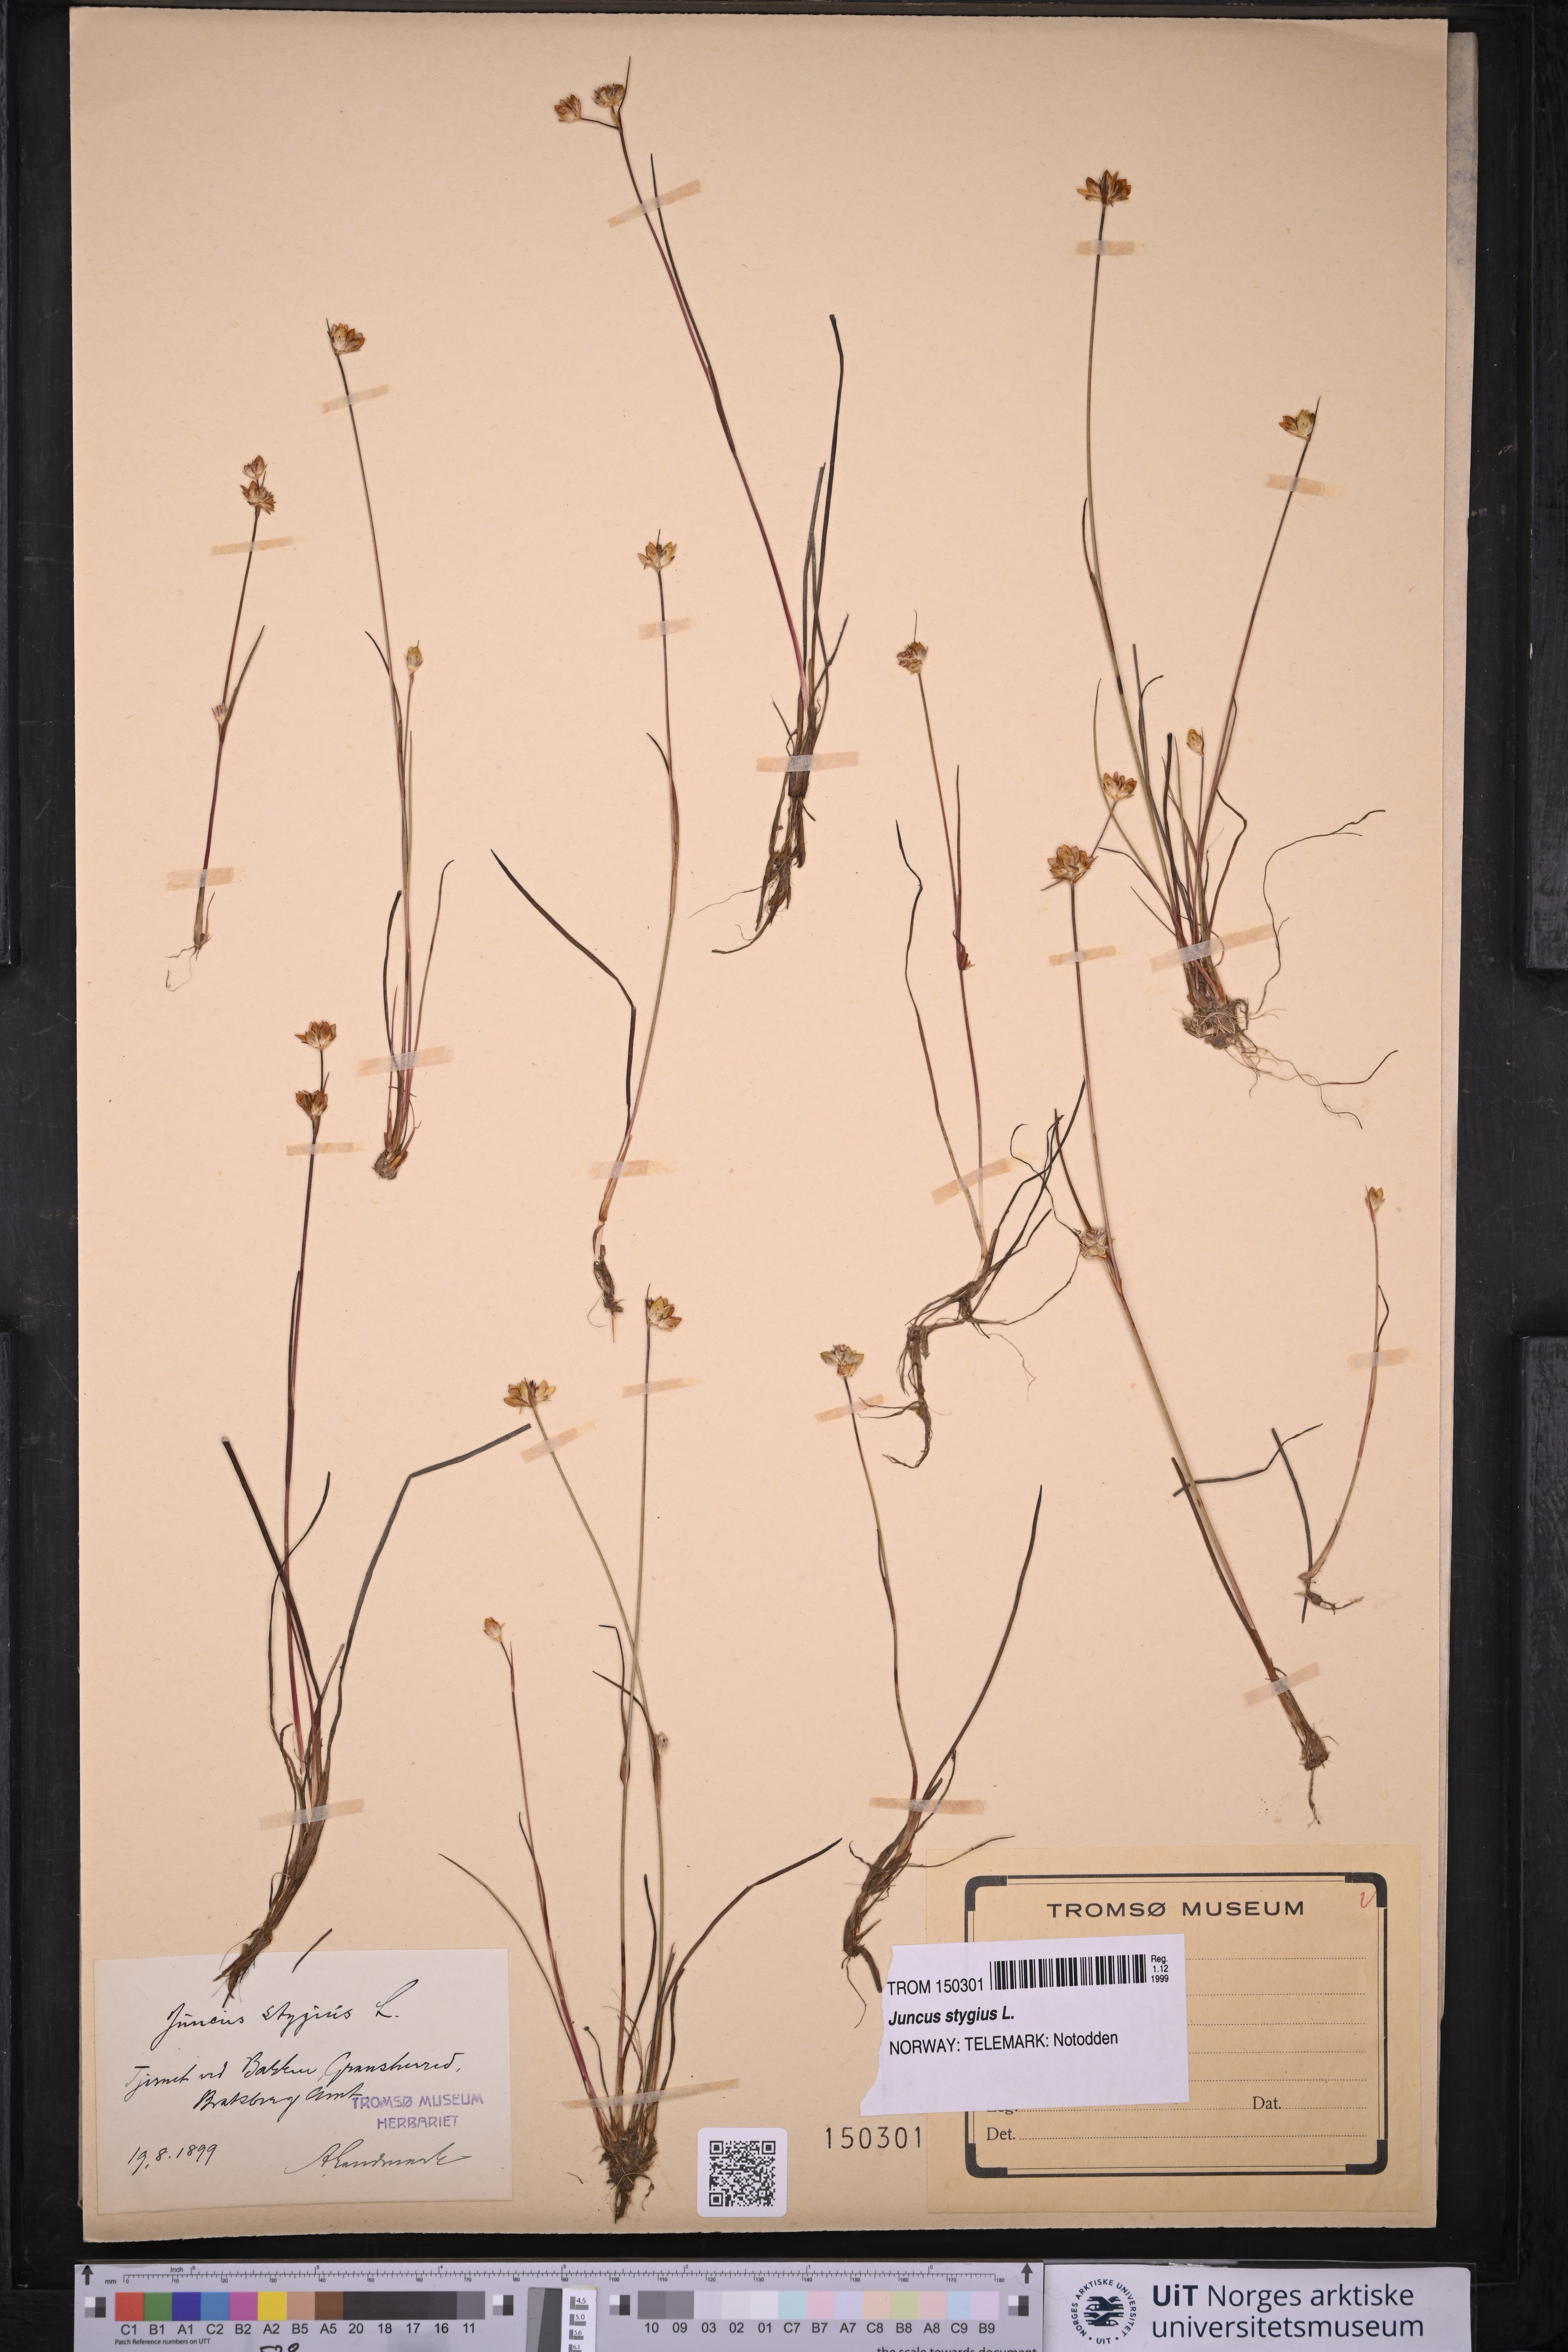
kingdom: Plantae
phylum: Tracheophyta
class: Liliopsida
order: Poales
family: Juncaceae
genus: Juncus
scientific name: Juncus stygius
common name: Bog rush
